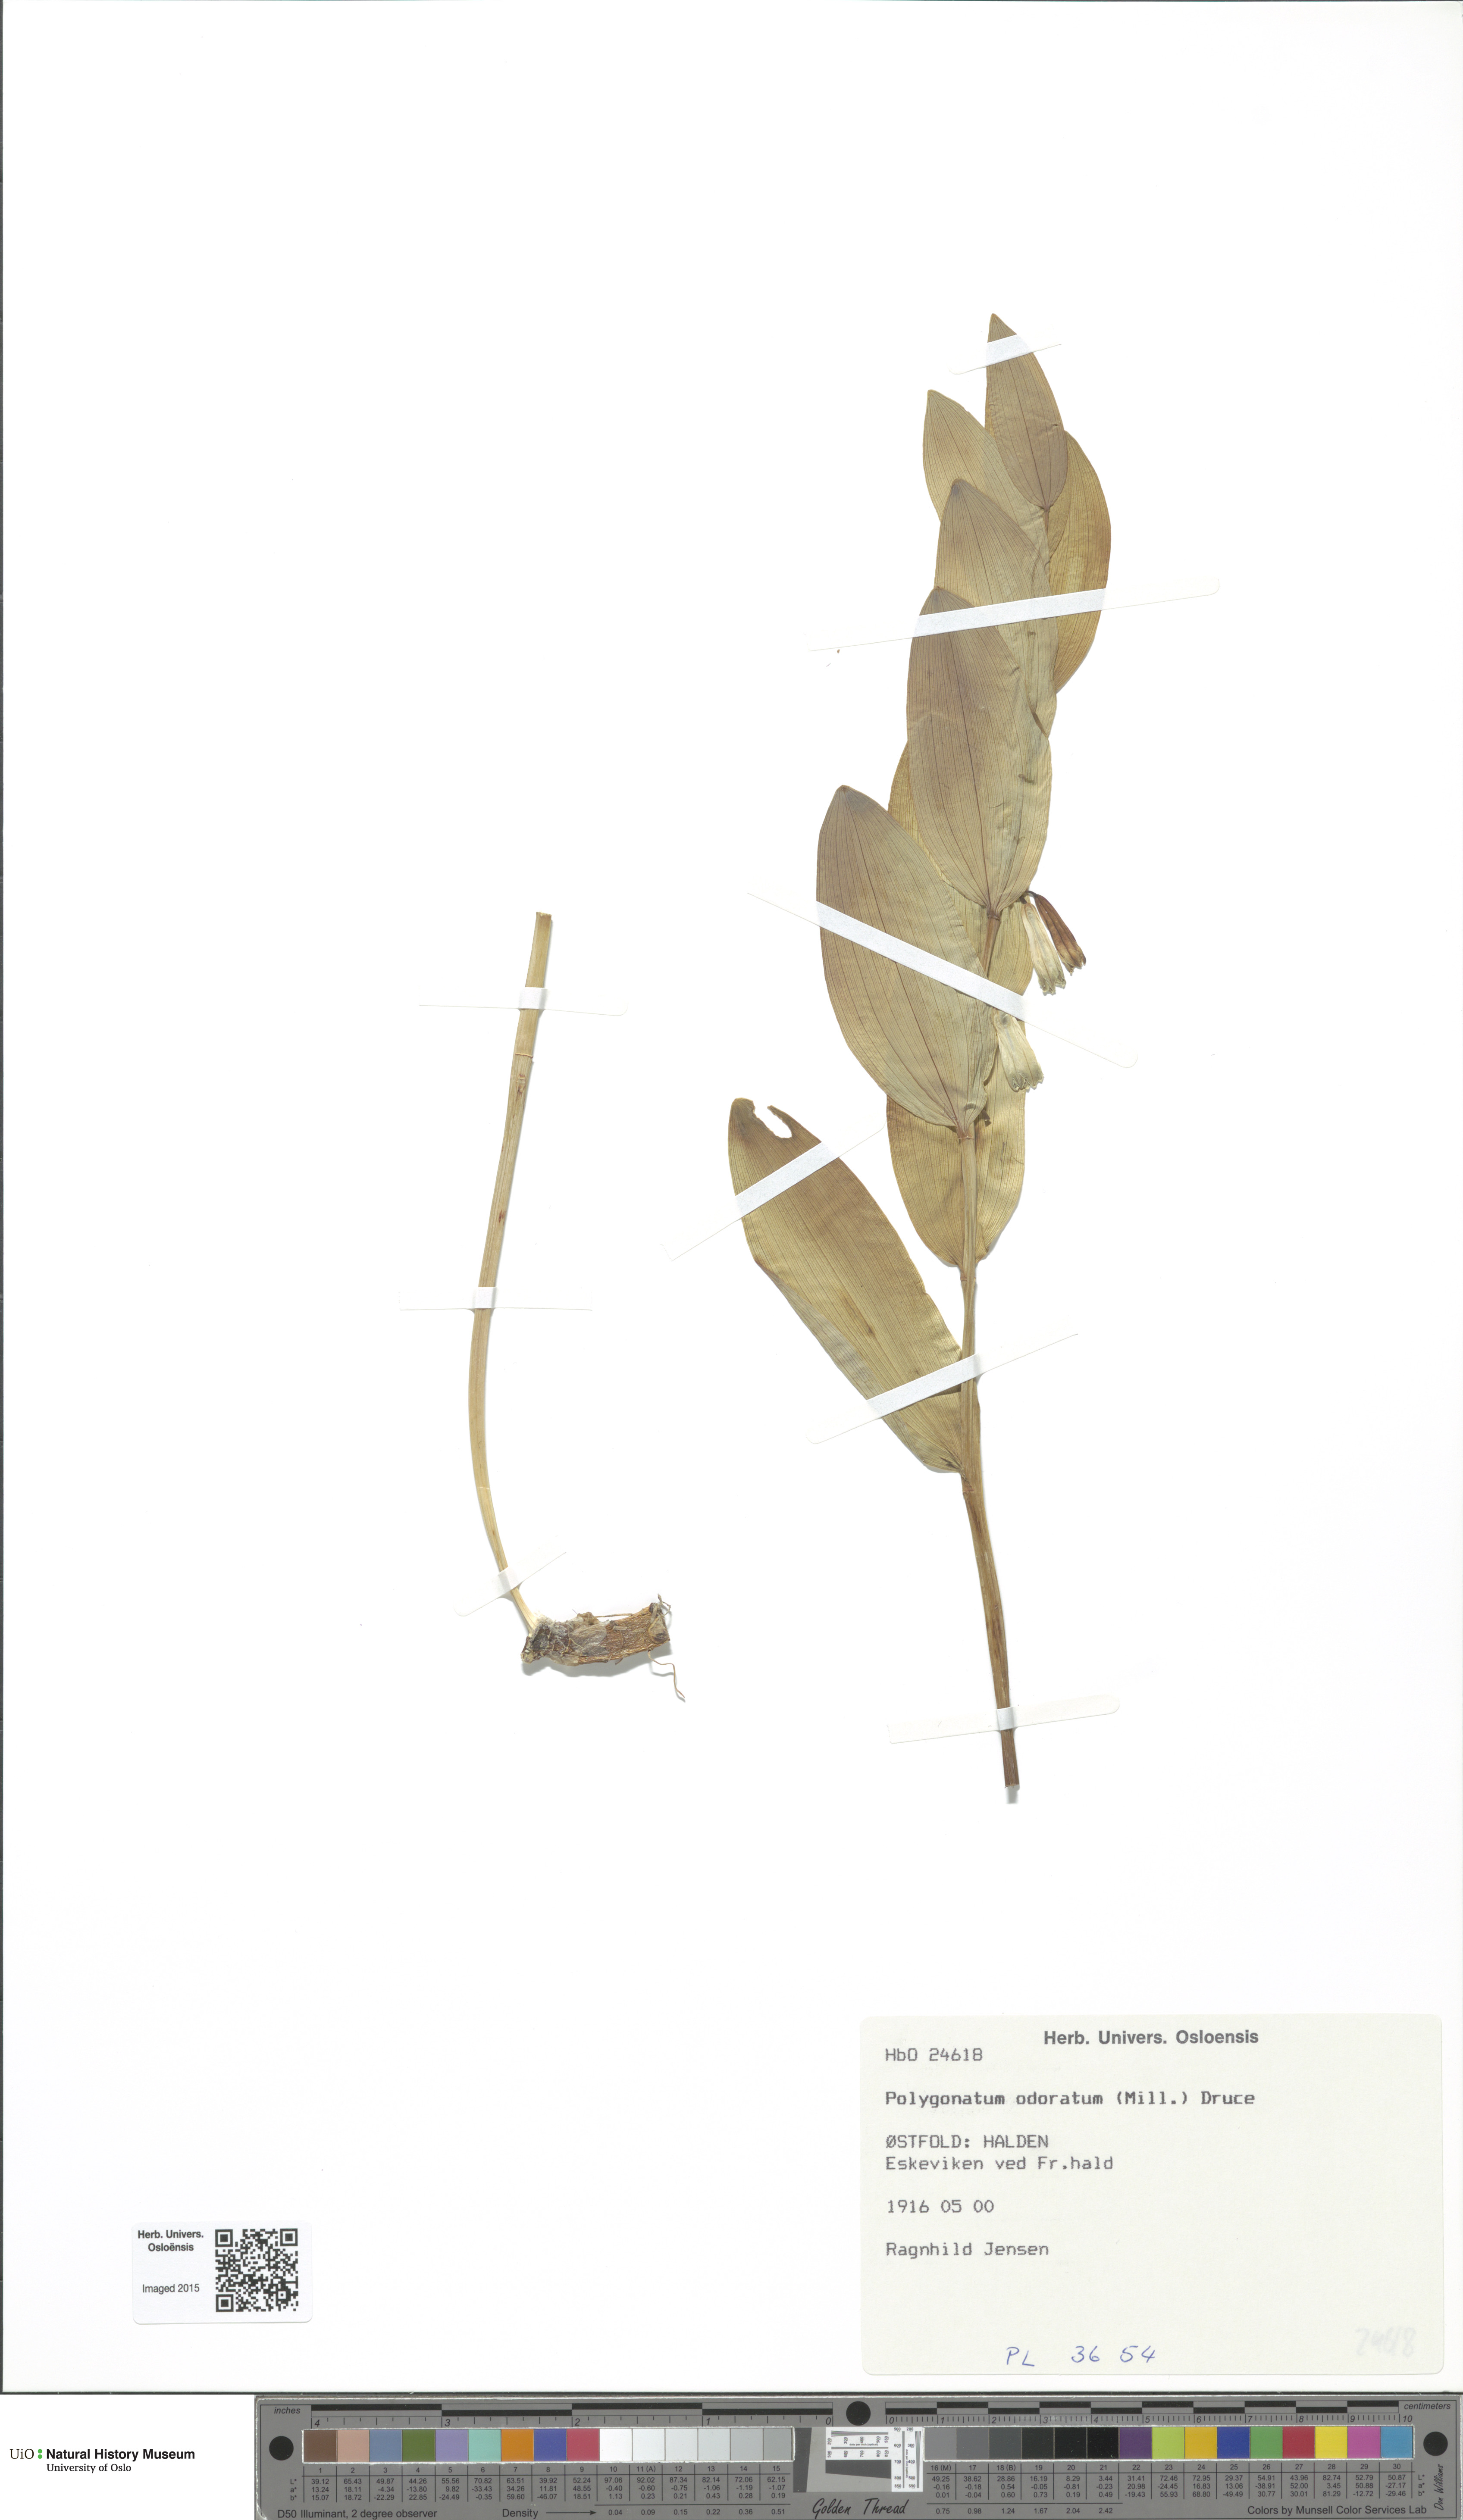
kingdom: Plantae
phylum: Tracheophyta
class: Liliopsida
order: Asparagales
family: Asparagaceae
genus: Polygonatum
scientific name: Polygonatum odoratum
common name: Angular solomon's-seal
